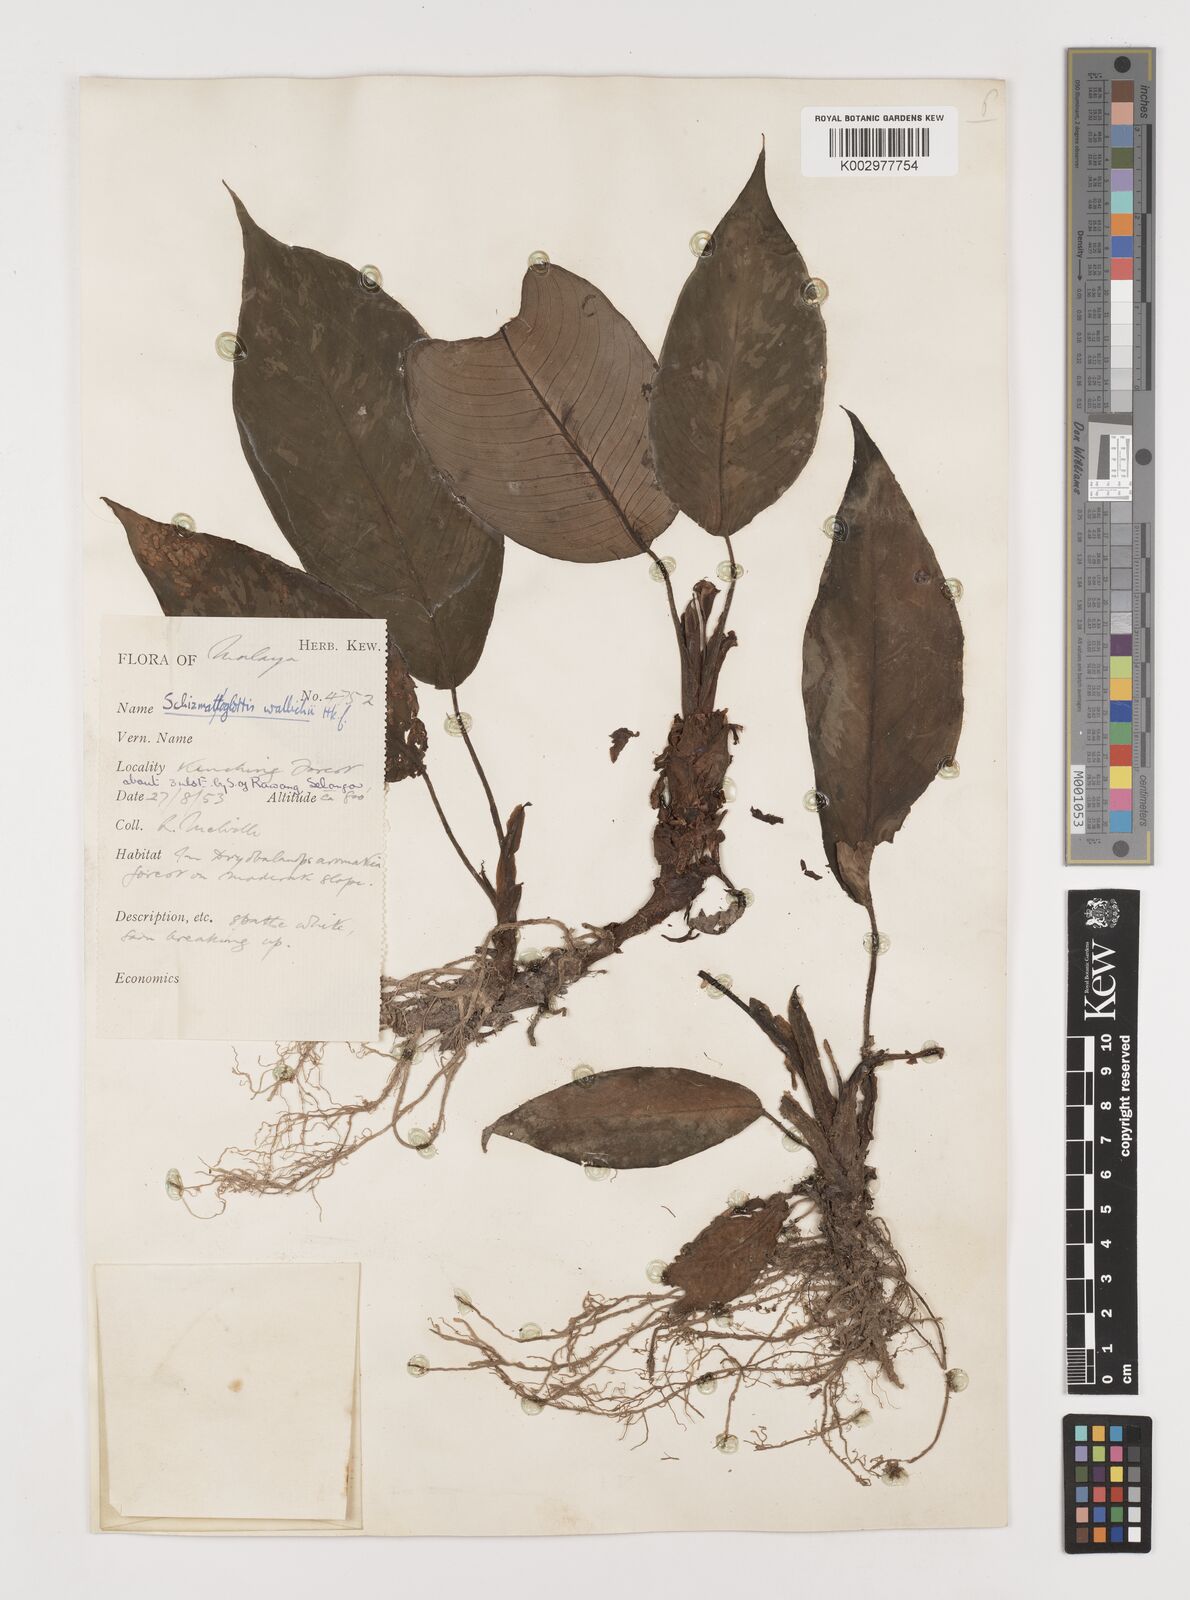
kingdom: Plantae
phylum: Tracheophyta
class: Liliopsida
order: Alismatales
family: Araceae
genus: Schismatoglottis
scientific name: Schismatoglottis scortechinii
